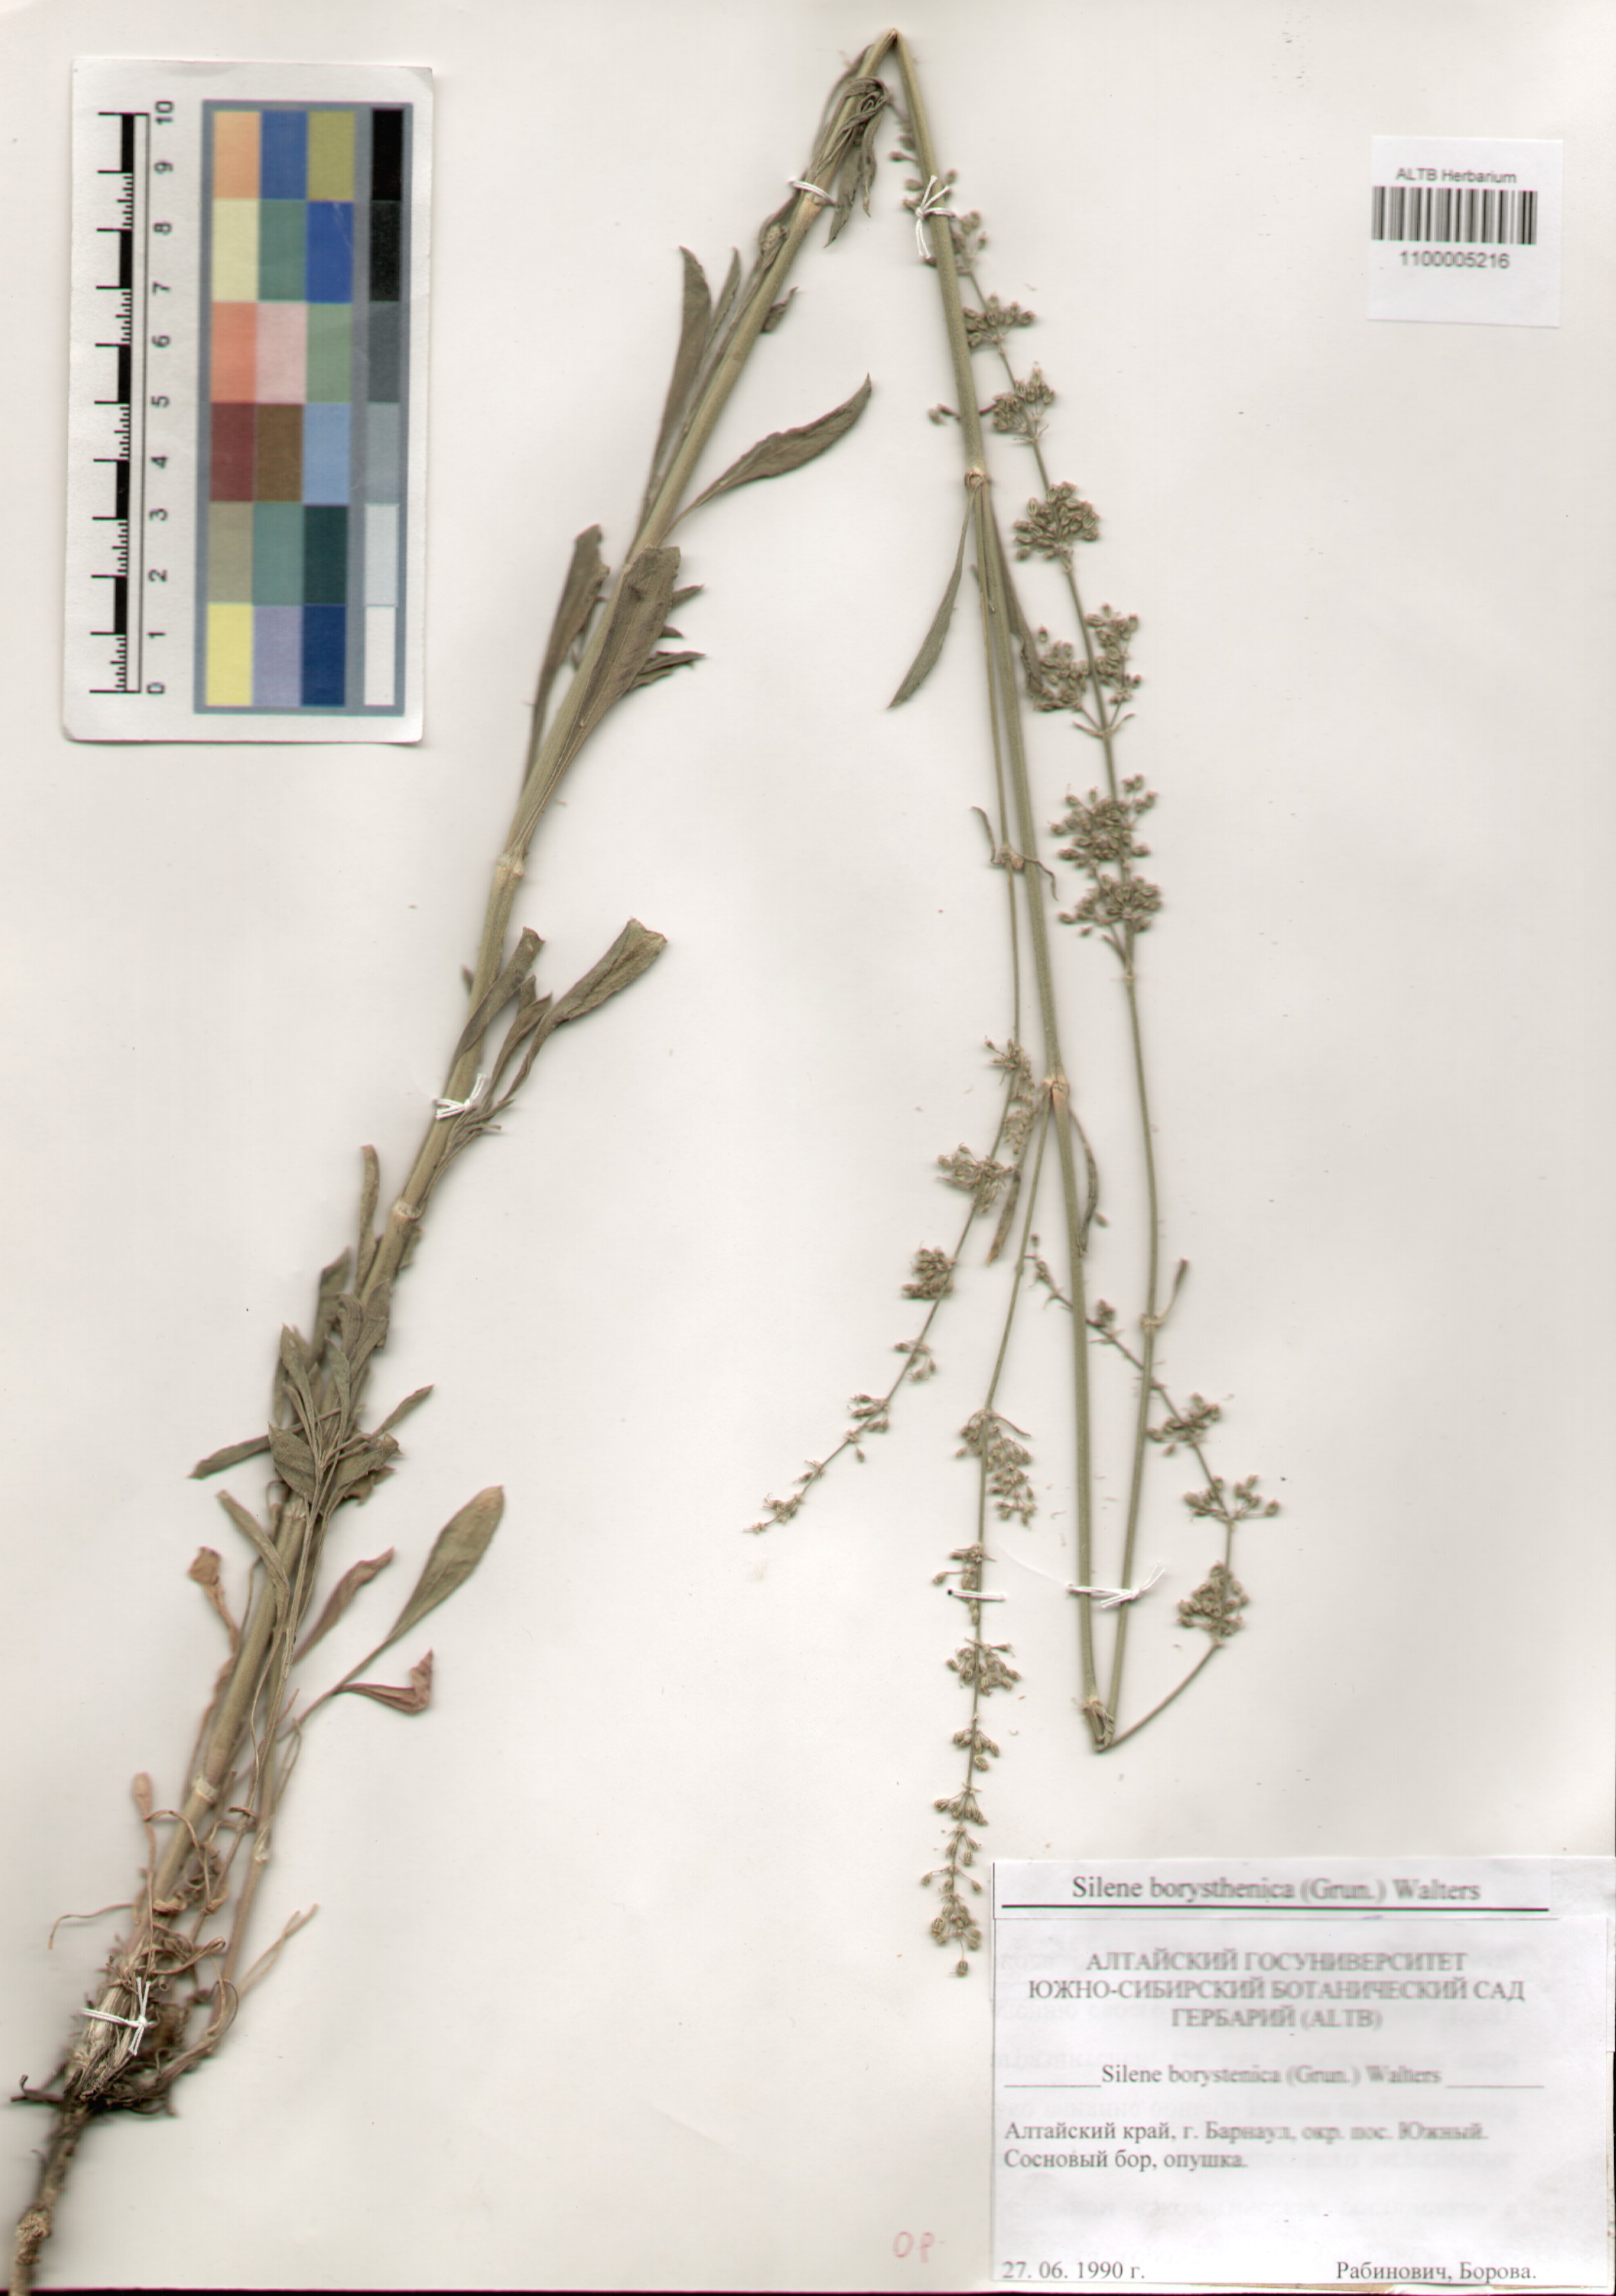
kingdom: Plantae
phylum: Tracheophyta
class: Magnoliopsida
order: Caryophyllales
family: Caryophyllaceae
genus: Silene
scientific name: Silene borysthenica
